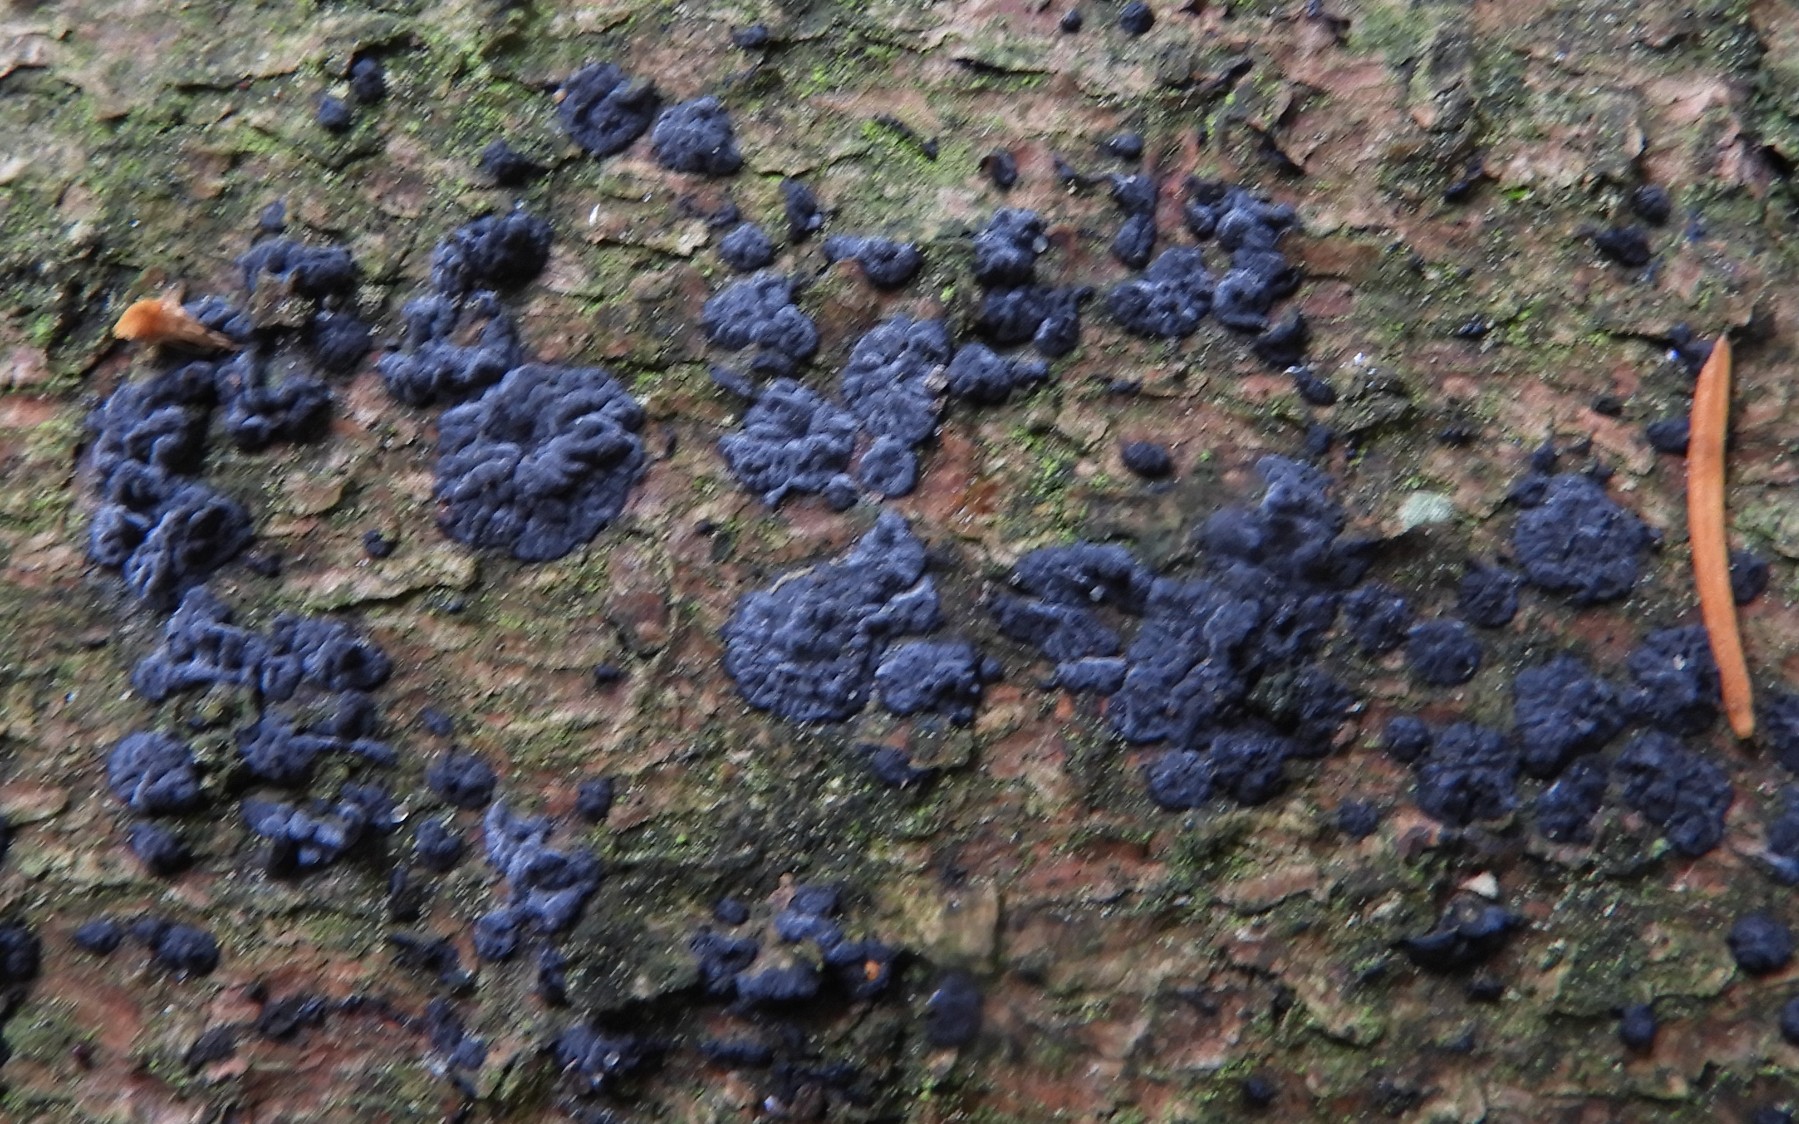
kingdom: Fungi
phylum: Basidiomycota
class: Agaricomycetes
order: Auriculariales
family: Auriculariaceae
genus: Exidia
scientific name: Exidia pithya
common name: gran-bævretop
